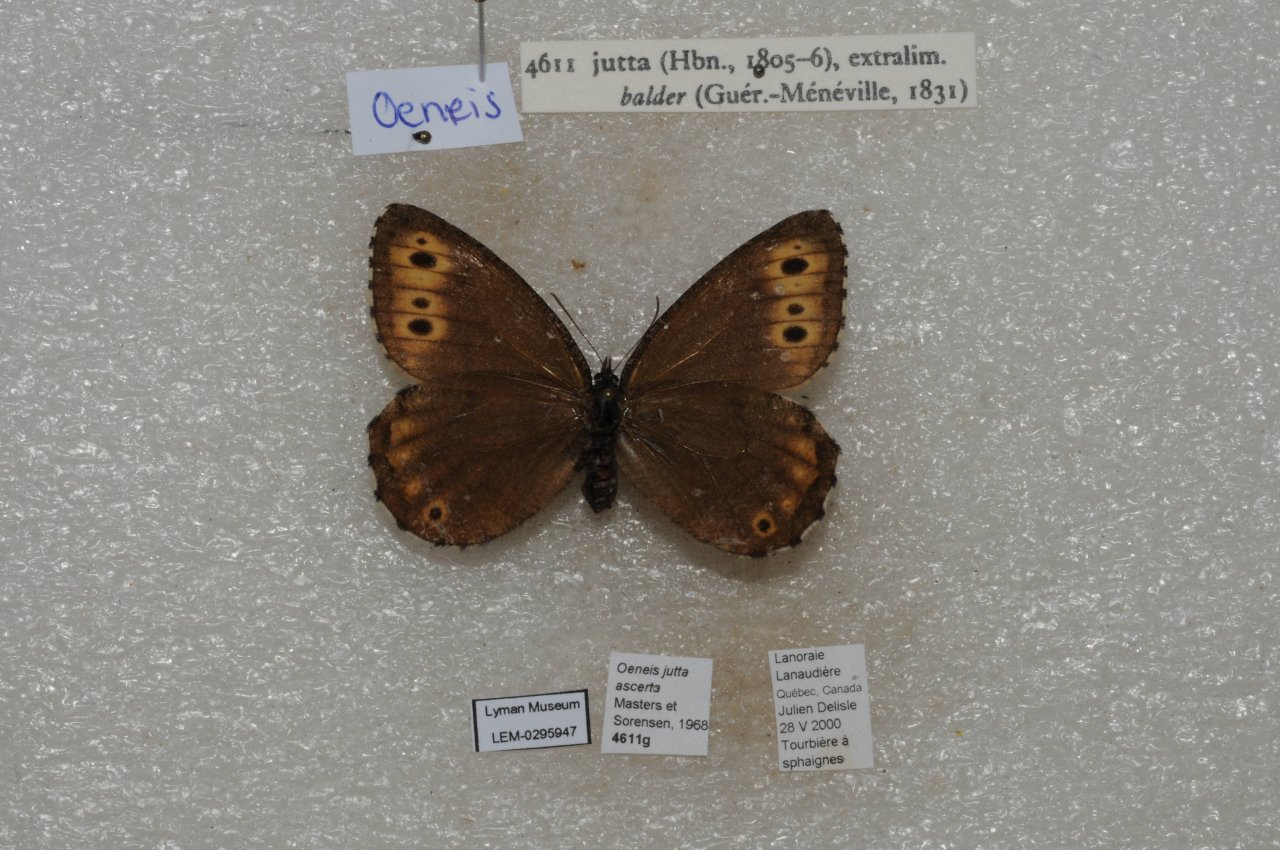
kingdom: Animalia
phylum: Arthropoda
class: Insecta
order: Lepidoptera
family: Nymphalidae
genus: Oeneis
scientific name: Oeneis jutta
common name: Jutta Arctic
